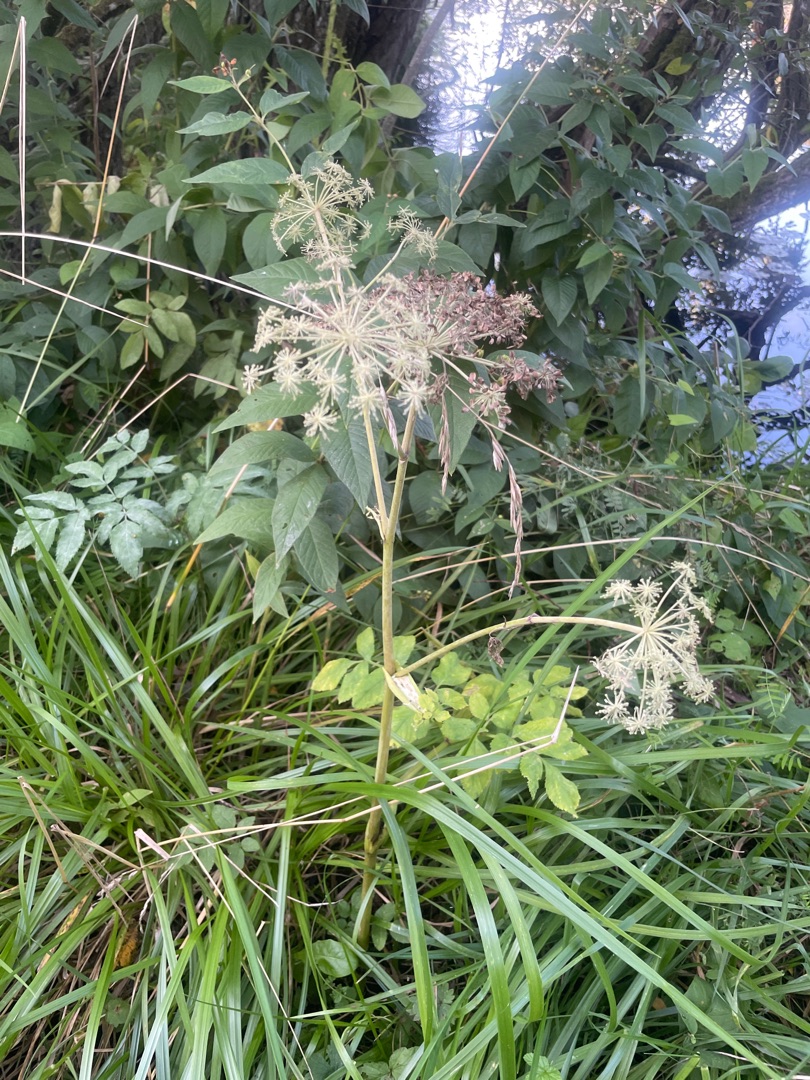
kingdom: Plantae
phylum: Tracheophyta
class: Magnoliopsida
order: Apiales
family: Apiaceae
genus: Angelica
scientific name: Angelica sylvestris
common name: Angelik
